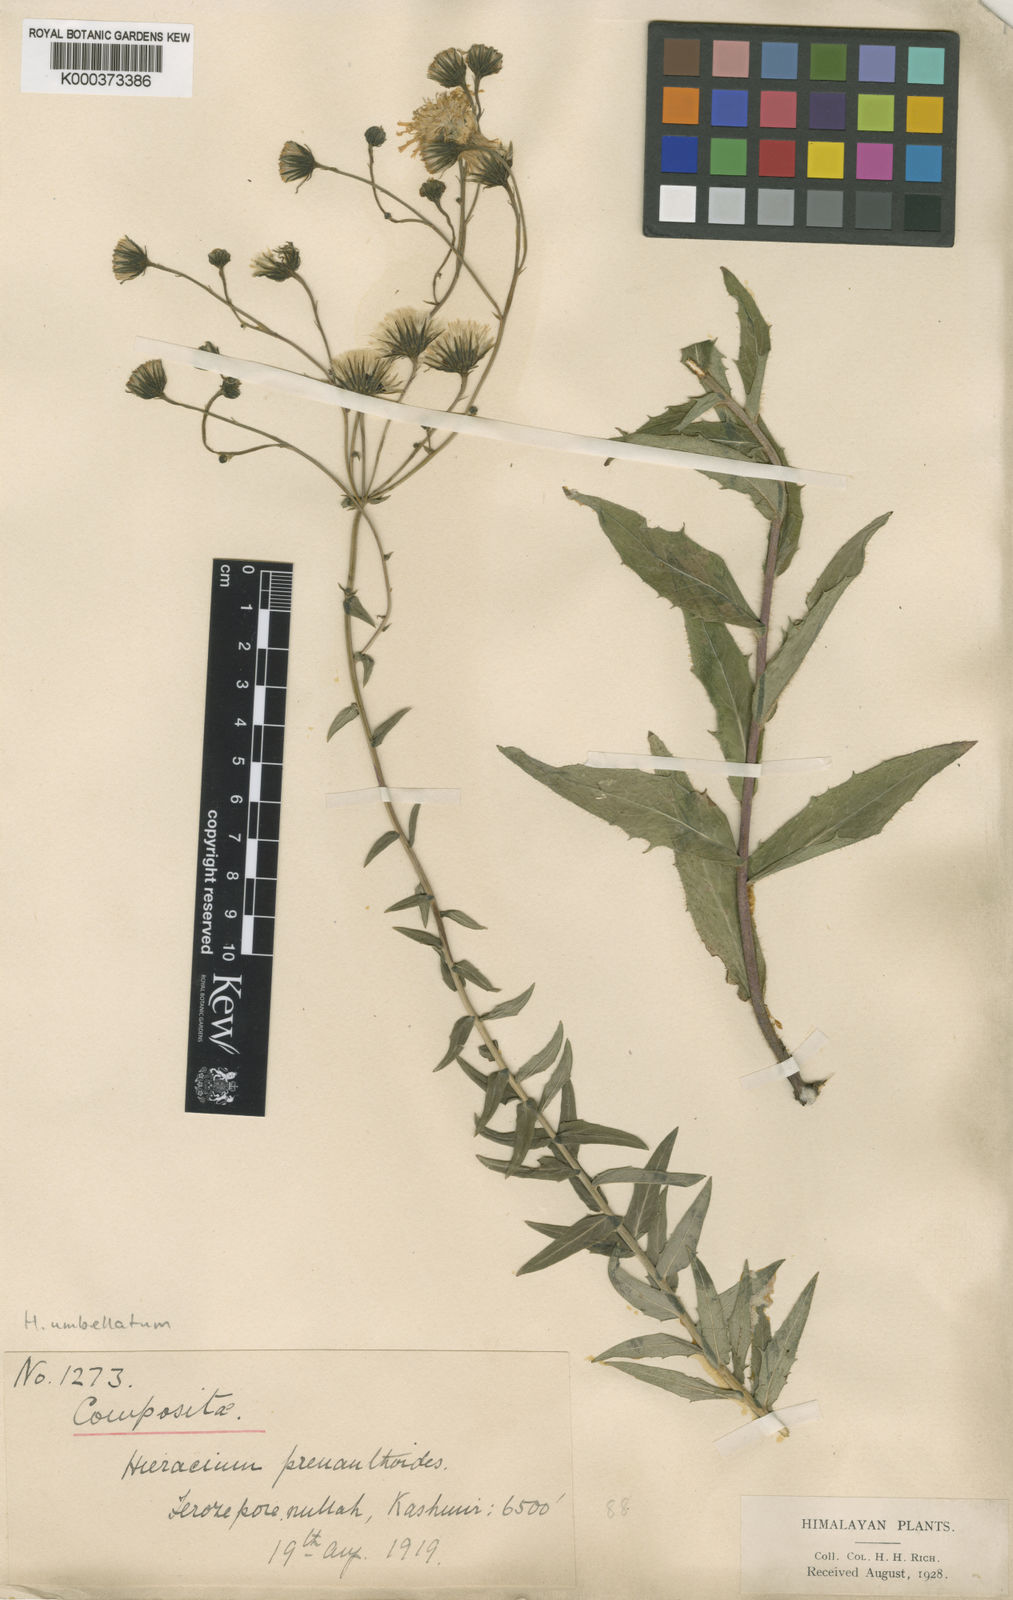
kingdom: Plantae
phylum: Tracheophyta
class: Magnoliopsida
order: Asterales
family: Asteraceae
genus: Hieracium
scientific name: Hieracium umbellatum
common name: Northern hawkweed
